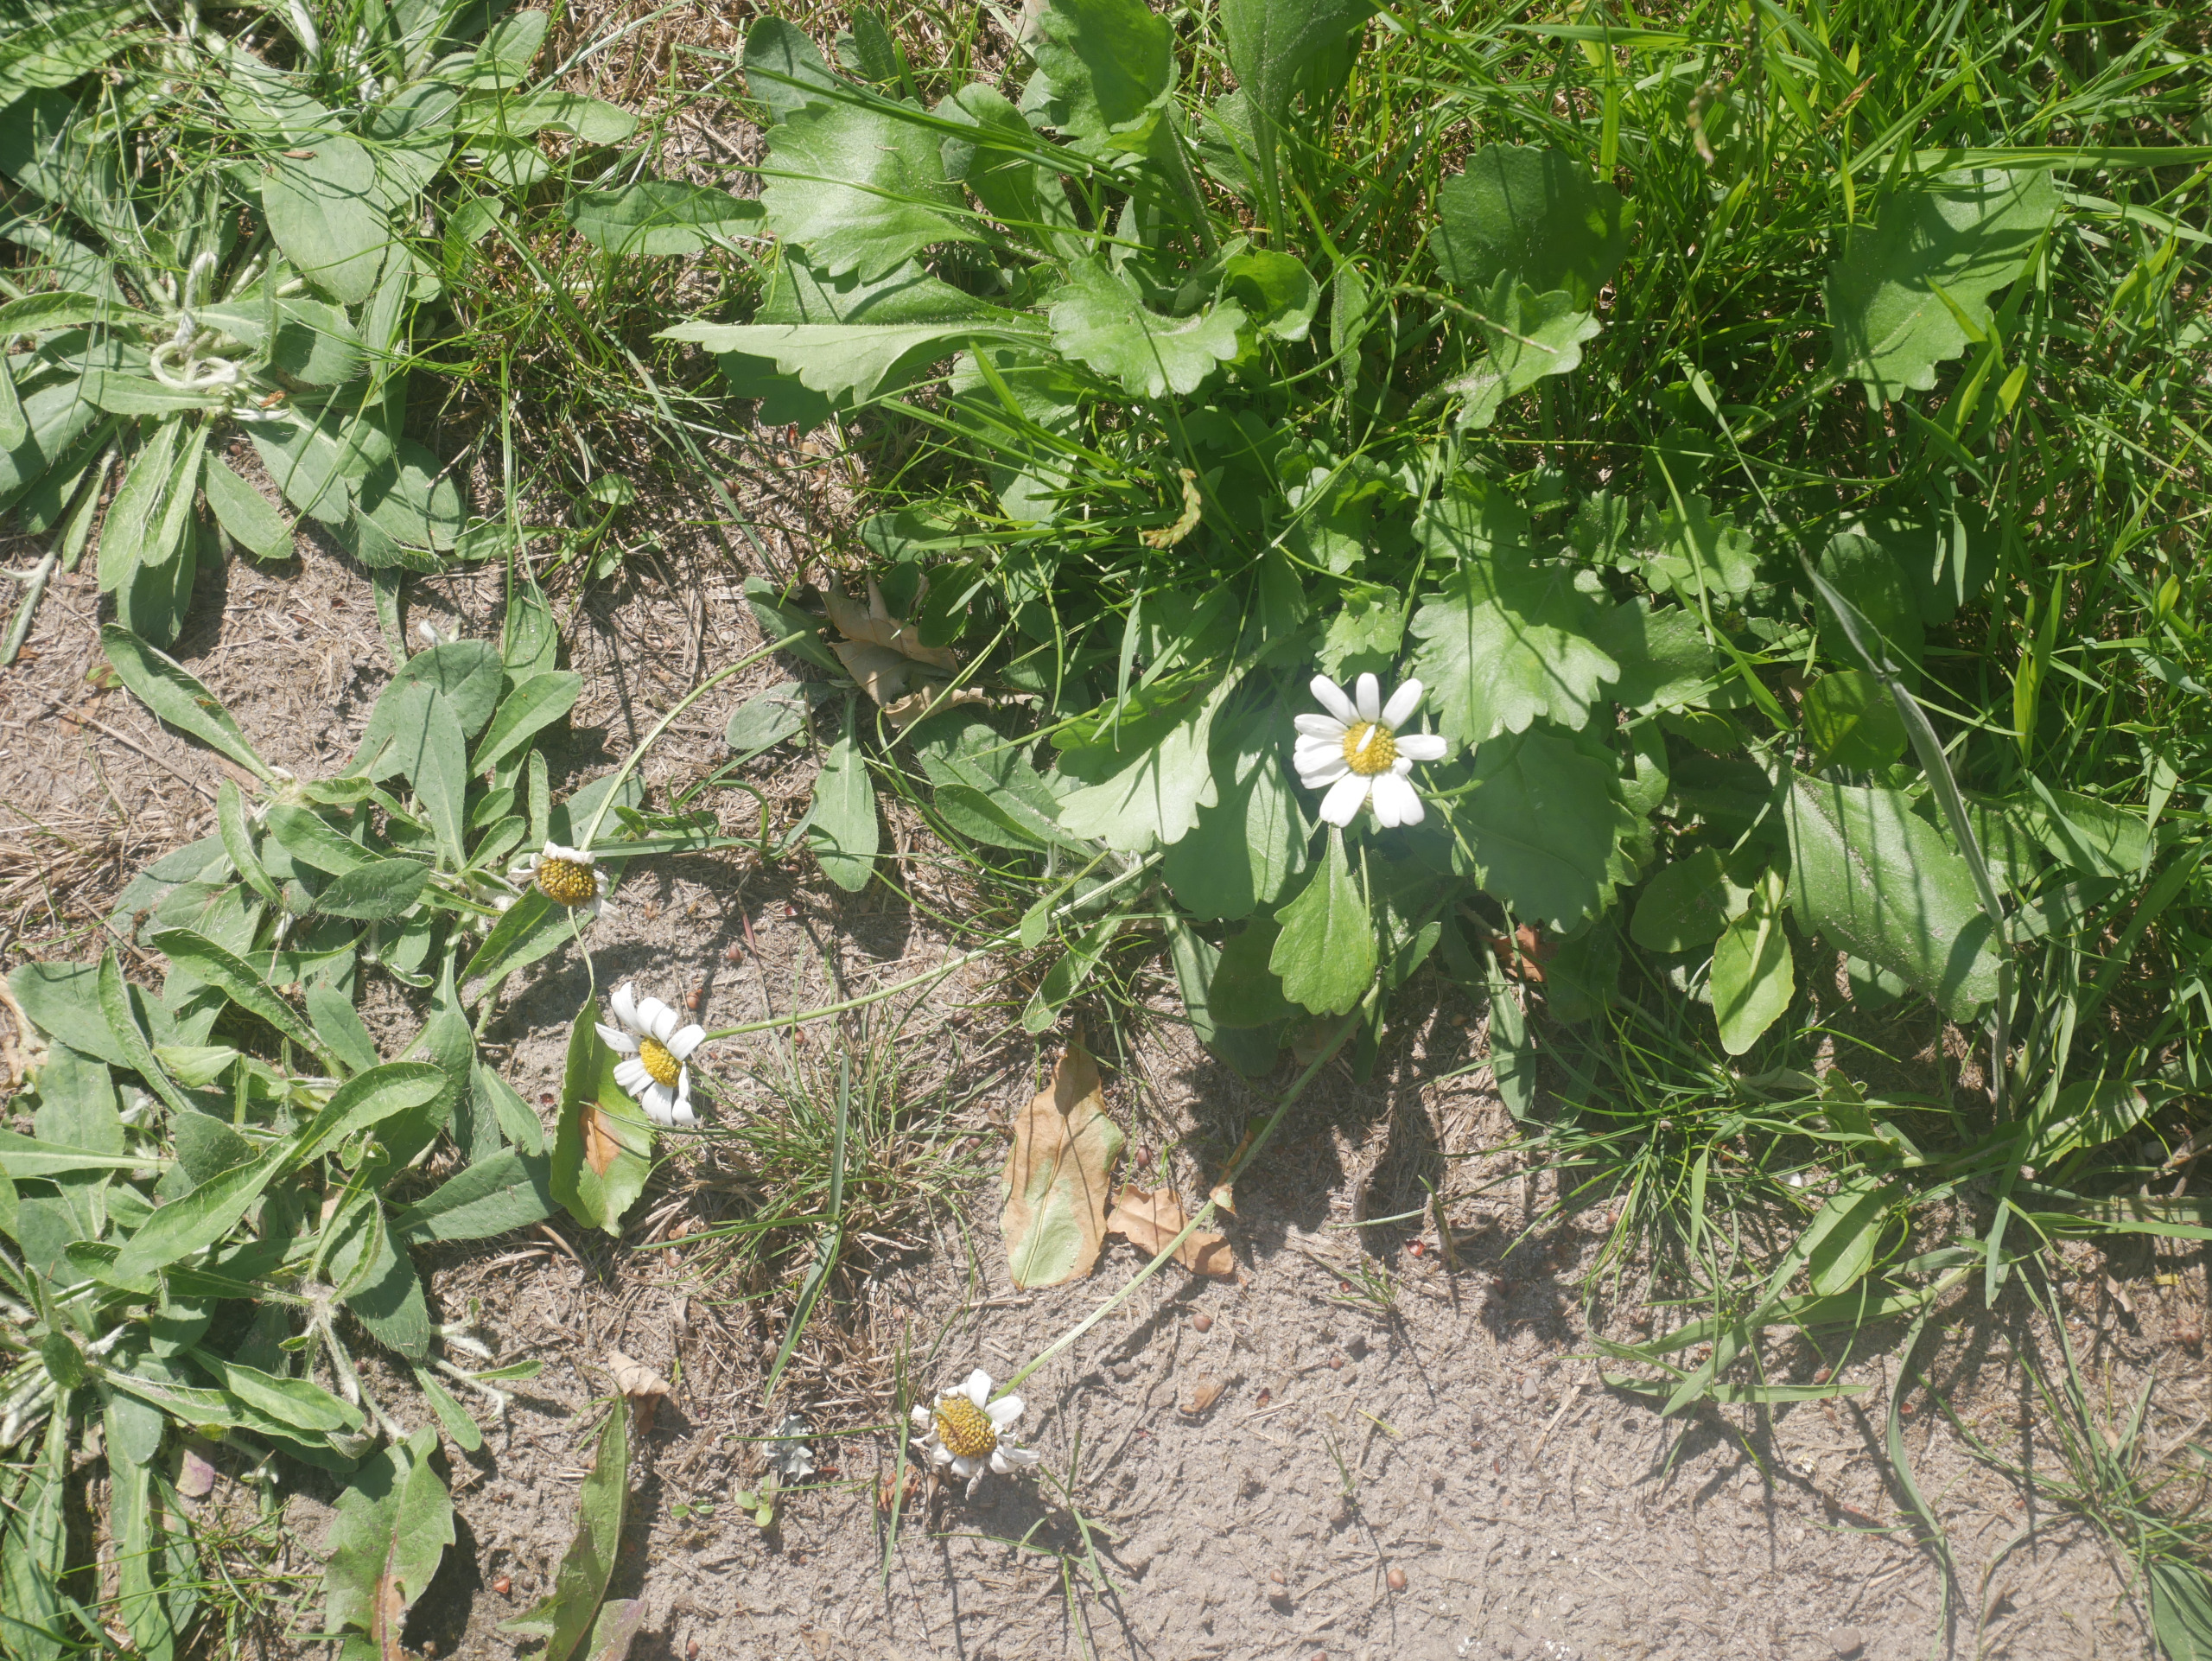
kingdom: Plantae
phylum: Tracheophyta
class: Magnoliopsida
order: Asterales
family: Asteraceae
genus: Leucanthemum
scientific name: Leucanthemum vulgare
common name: Hvid okseøje
